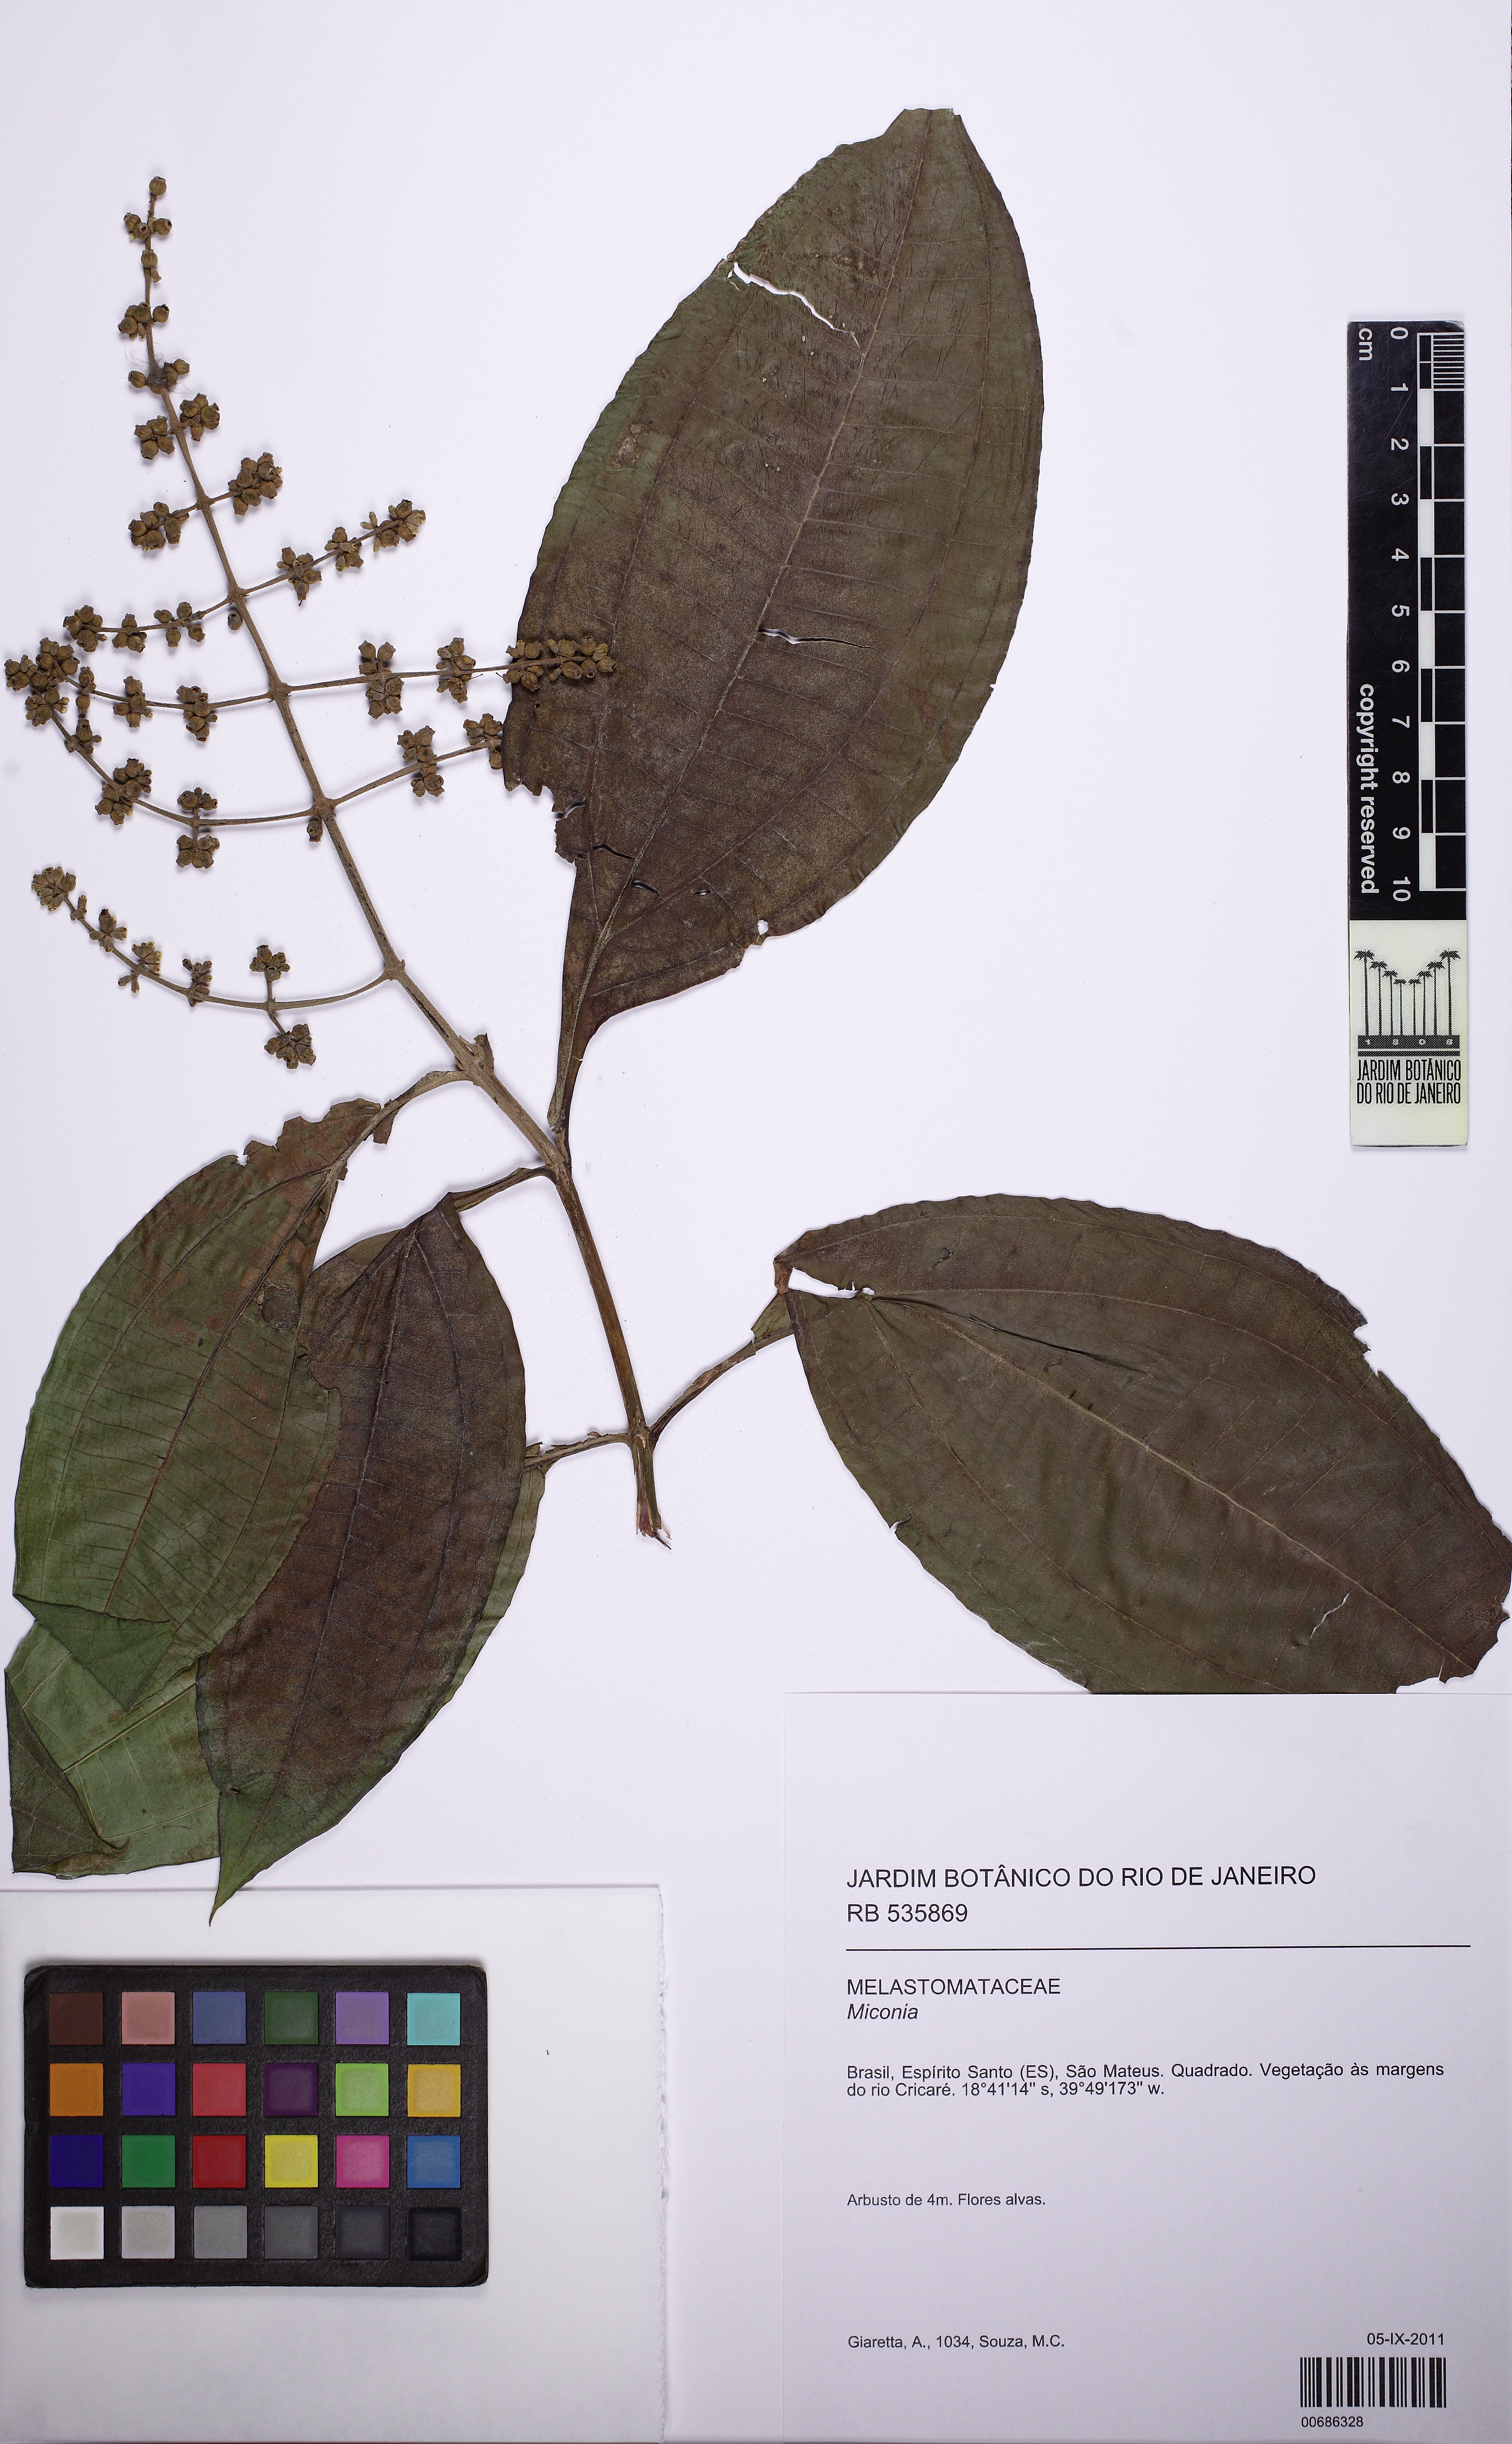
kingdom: Plantae
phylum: Tracheophyta
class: Magnoliopsida
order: Myrtales
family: Melastomataceae
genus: Miconia
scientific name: Miconia prasina
